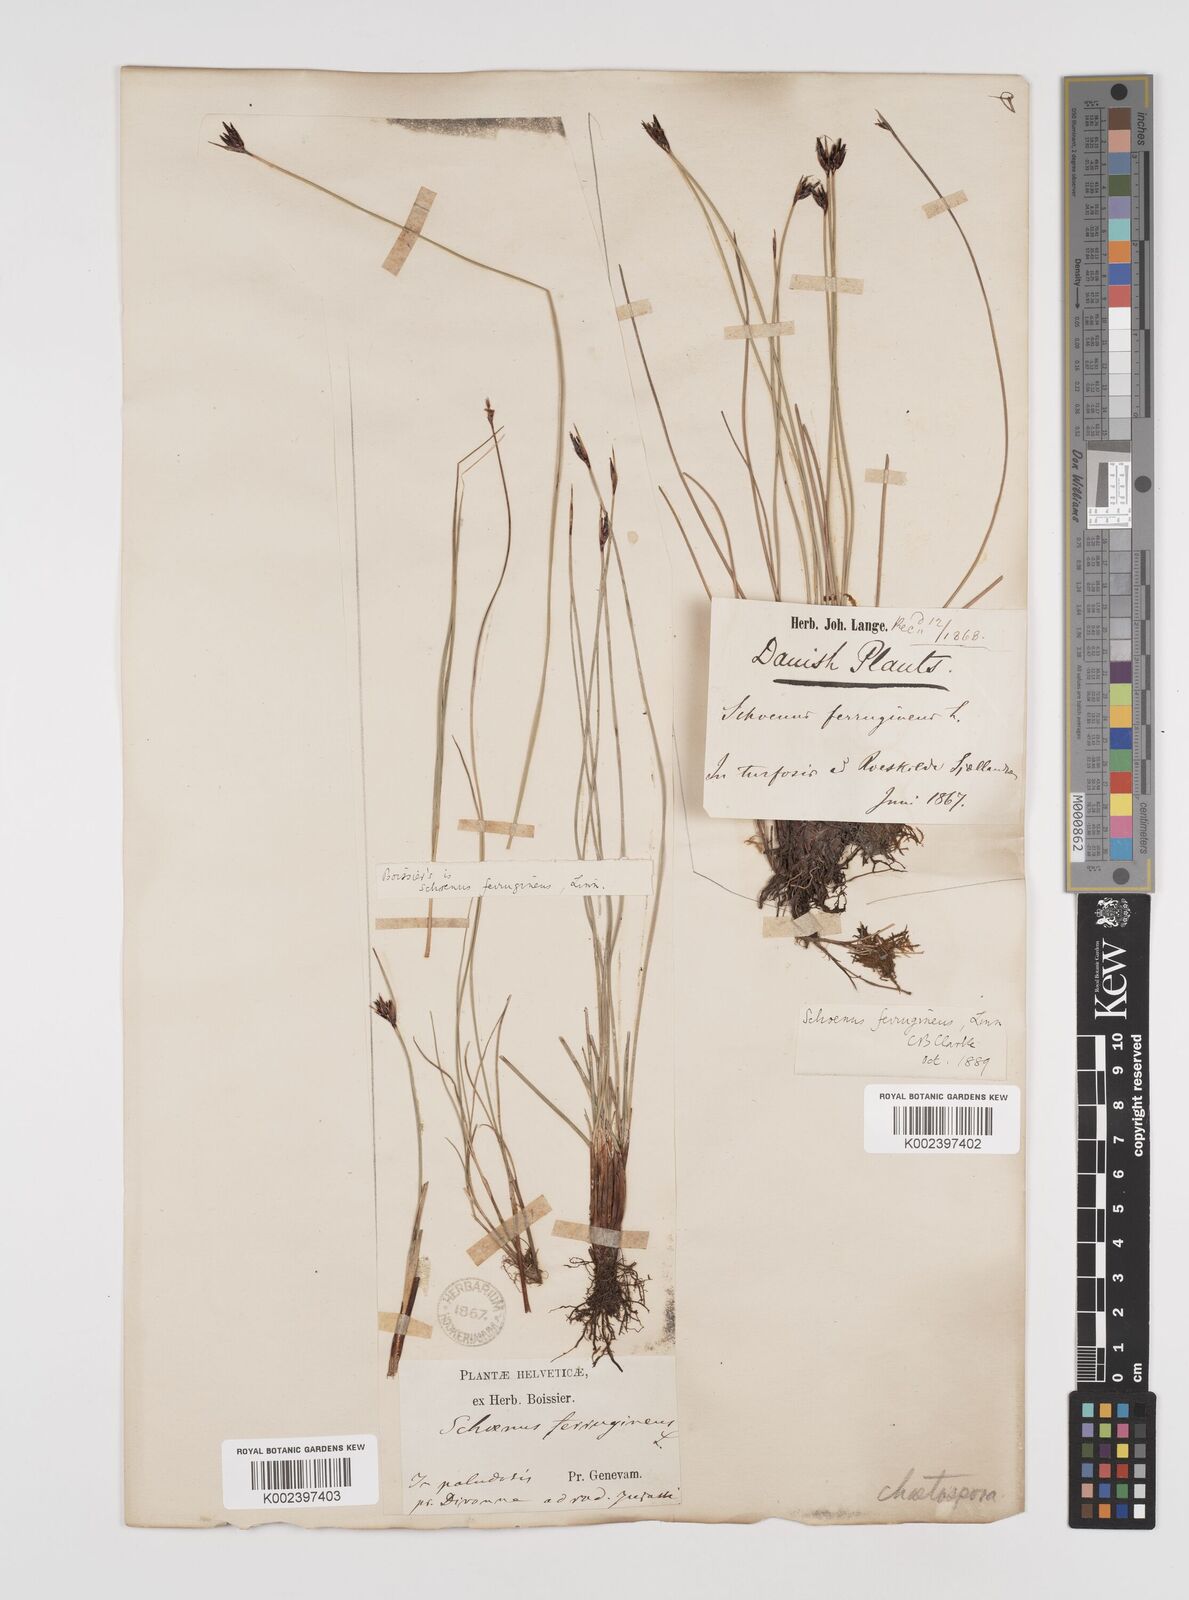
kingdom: Plantae
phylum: Tracheophyta
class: Liliopsida
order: Poales
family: Cyperaceae
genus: Schoenus
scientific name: Schoenus ferrugineus
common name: Brown bog-rush
